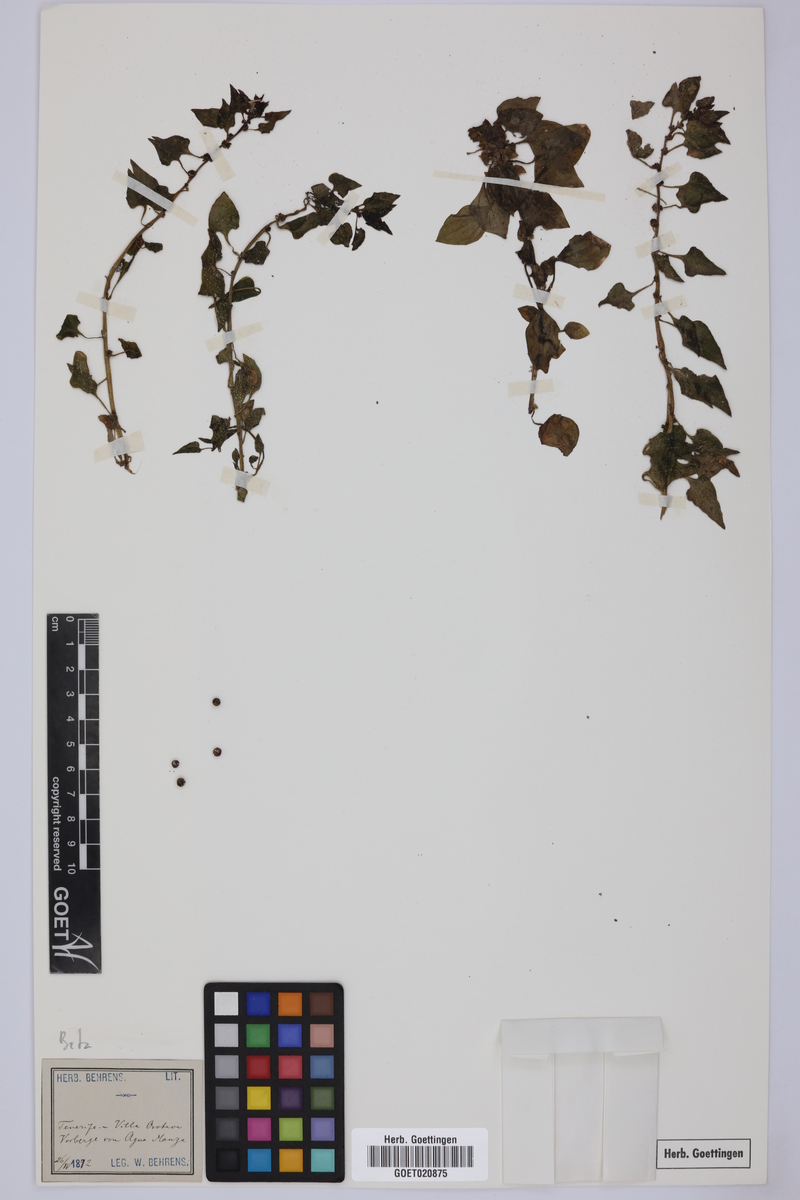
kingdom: Plantae
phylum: Tracheophyta
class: Magnoliopsida
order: Caryophyllales
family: Amaranthaceae
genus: Beta
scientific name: Beta
